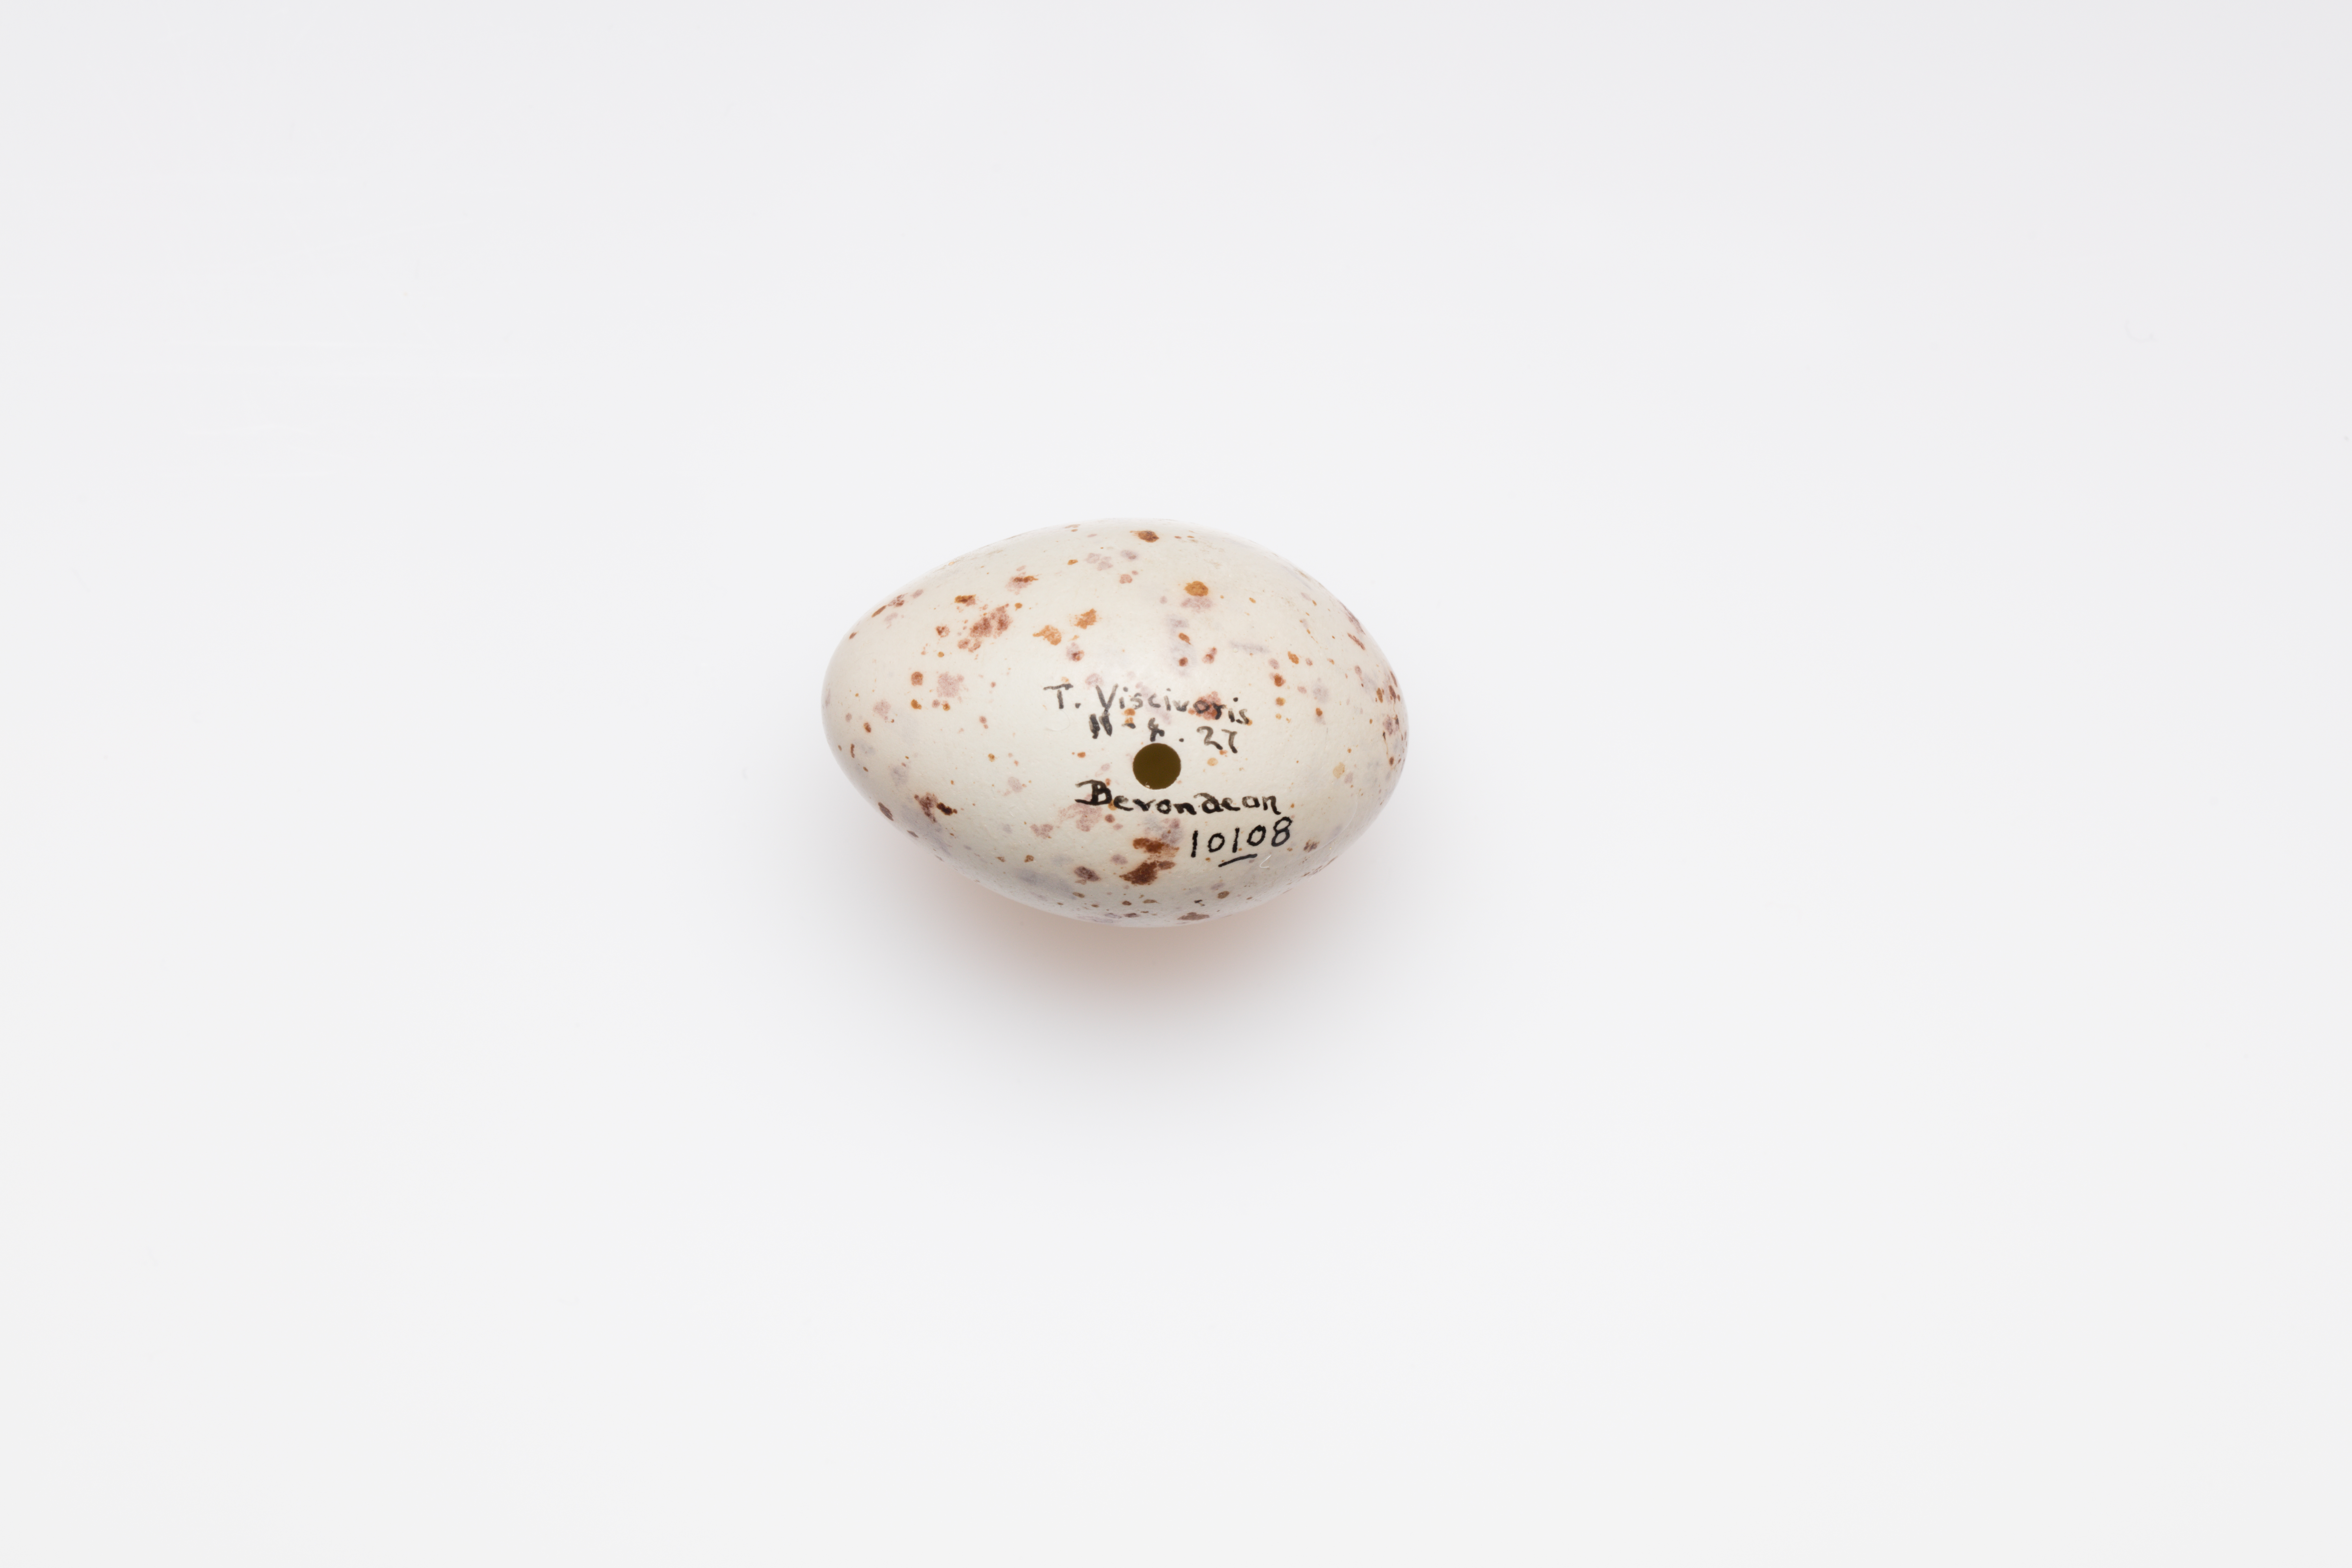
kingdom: Animalia
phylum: Chordata
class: Aves
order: Passeriformes
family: Turdidae
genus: Turdus
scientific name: Turdus viscivorus
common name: Mistle thrush
